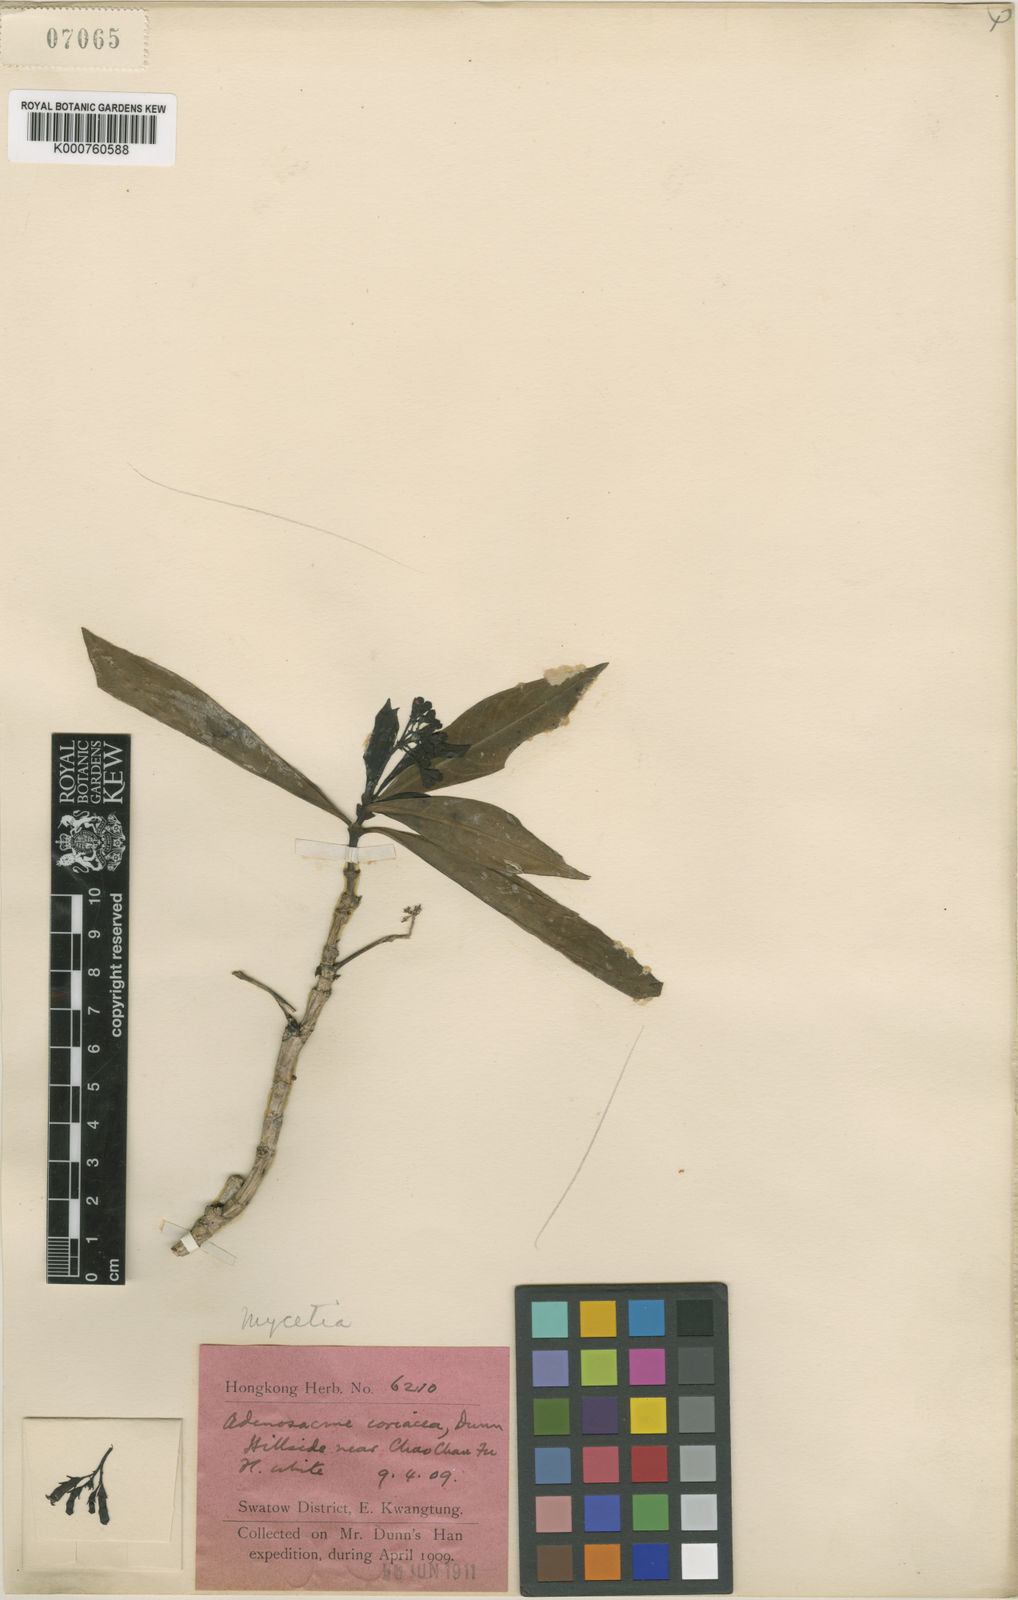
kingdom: Plantae
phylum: Tracheophyta
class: Magnoliopsida
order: Gentianales
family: Rubiaceae
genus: Foonchewia
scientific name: Foonchewia coriacea
